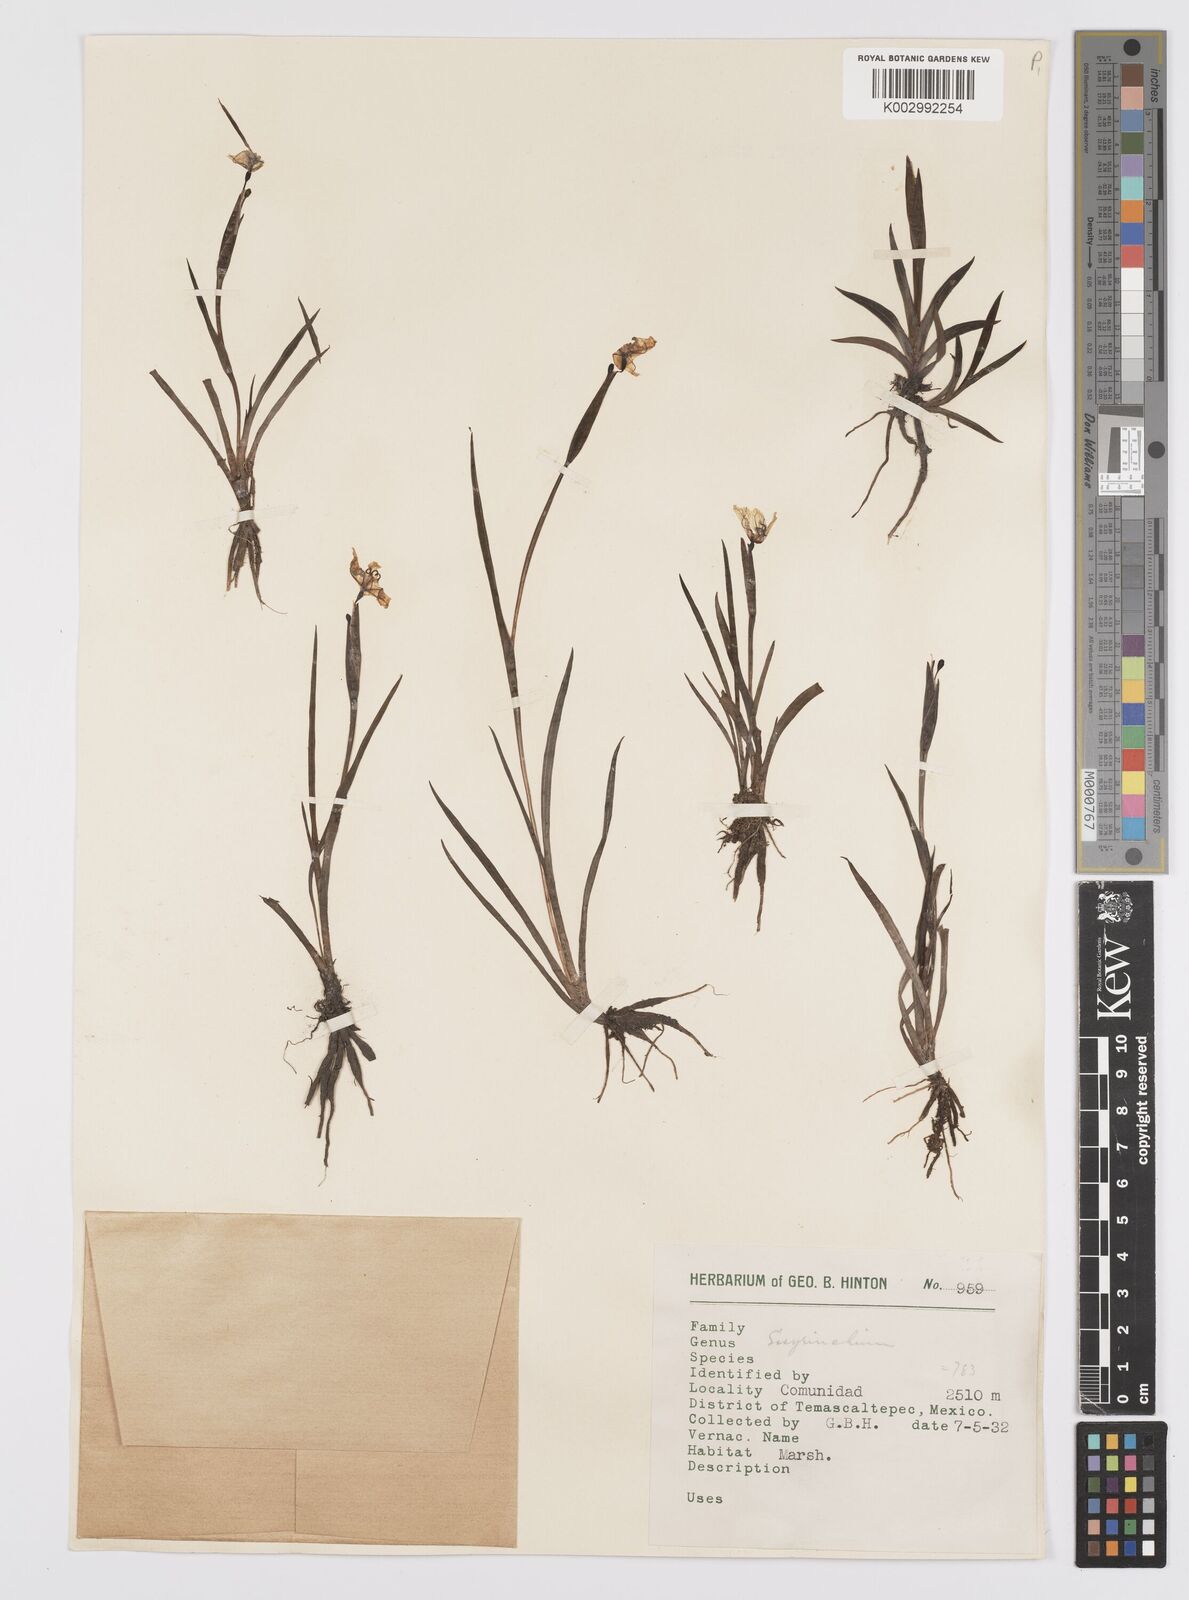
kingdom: Plantae
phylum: Tracheophyta
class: Liliopsida
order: Asparagales
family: Iridaceae
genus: Sisyrinchium
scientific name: Sisyrinchium
